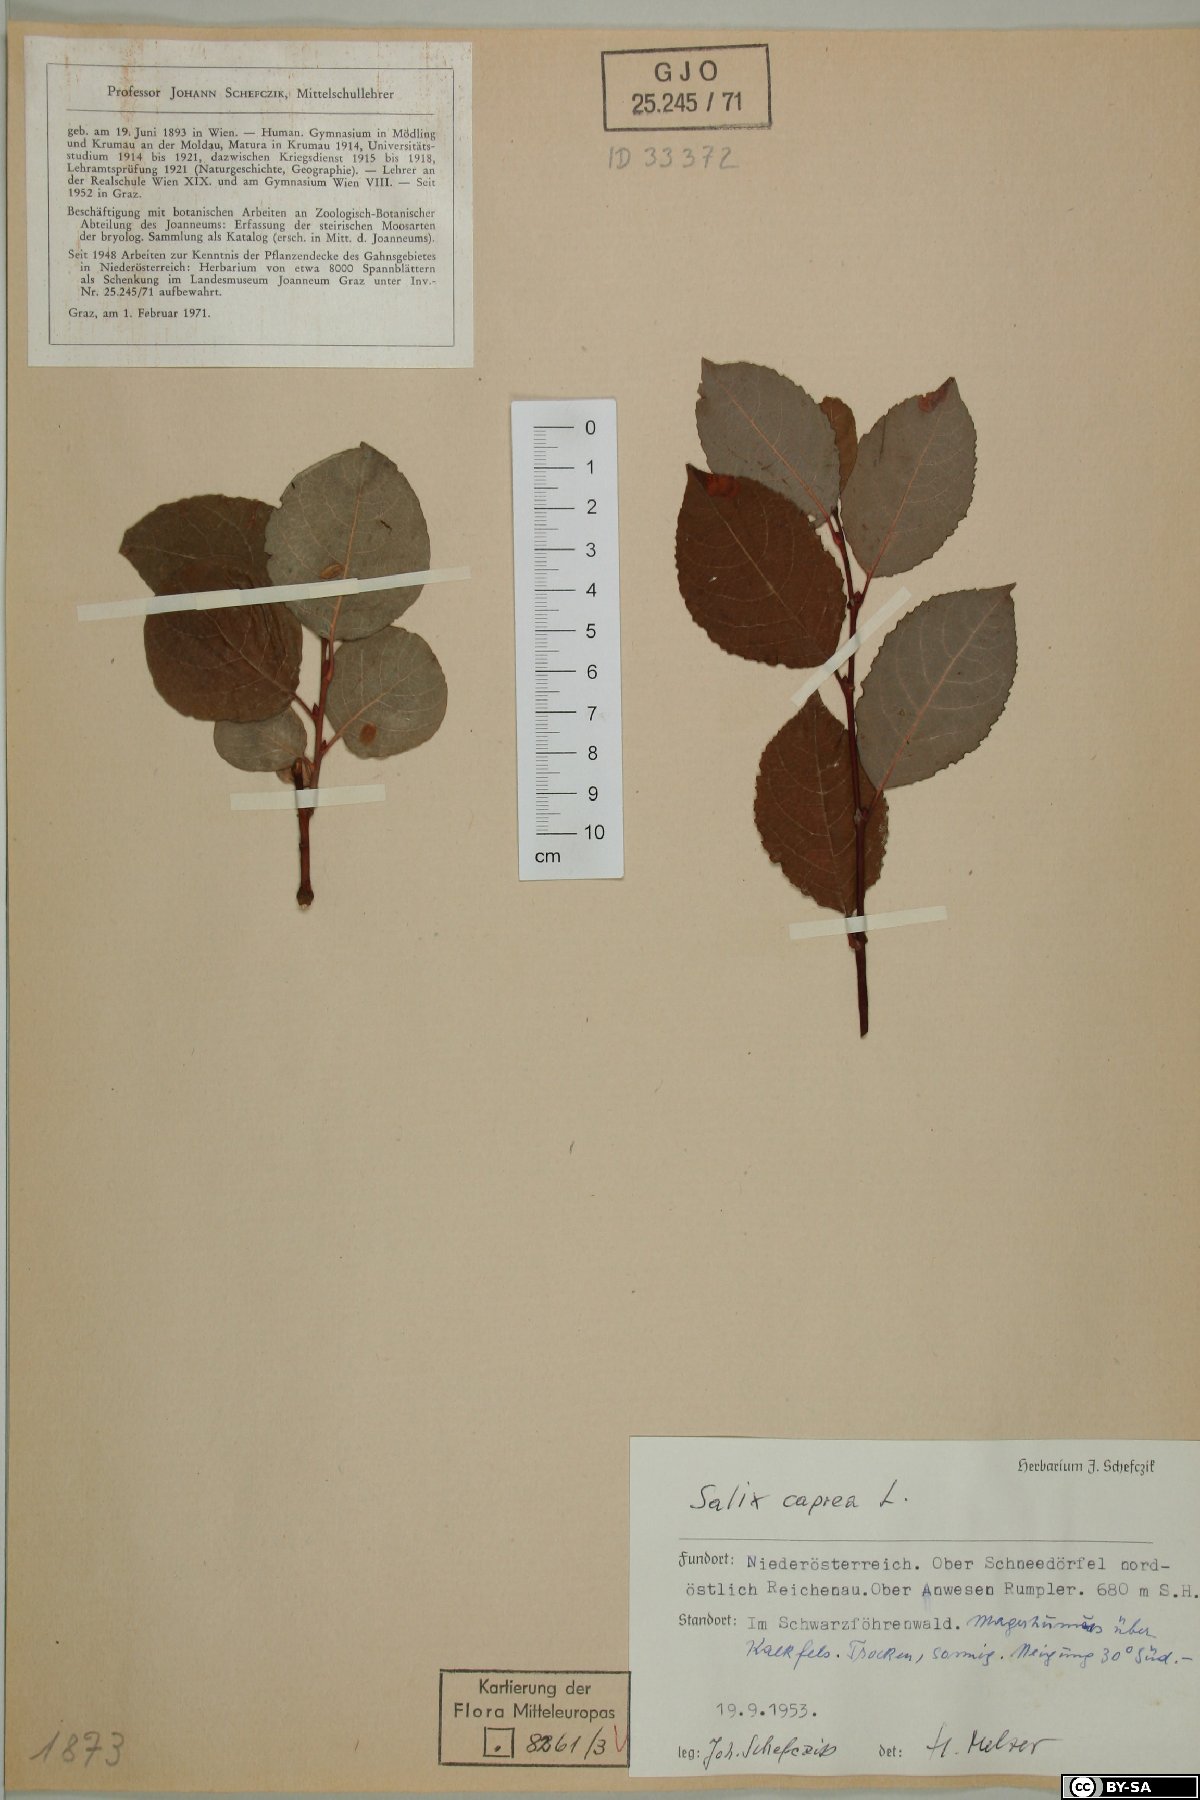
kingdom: Plantae
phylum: Tracheophyta
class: Magnoliopsida
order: Malpighiales
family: Salicaceae
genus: Salix
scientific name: Salix caprea
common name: Goat willow
